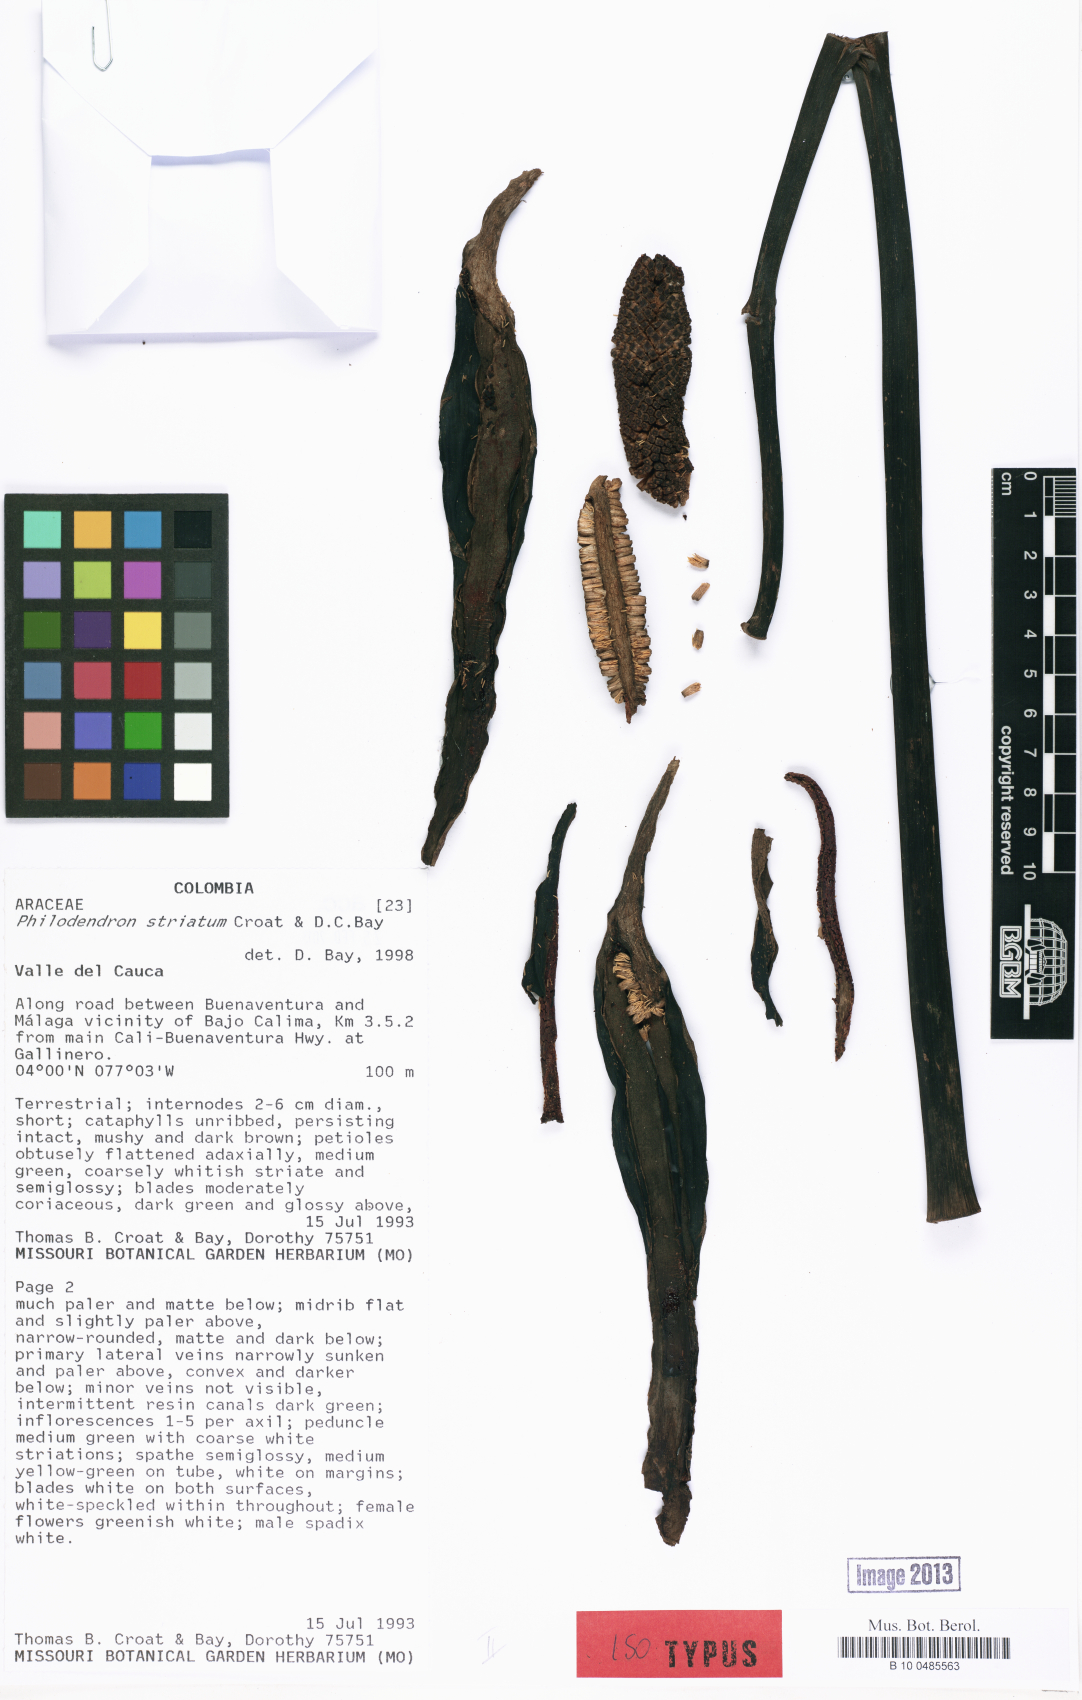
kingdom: Plantae
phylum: Tracheophyta
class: Liliopsida
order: Alismatales
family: Araceae
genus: Philodendron
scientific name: Philodendron striatum
